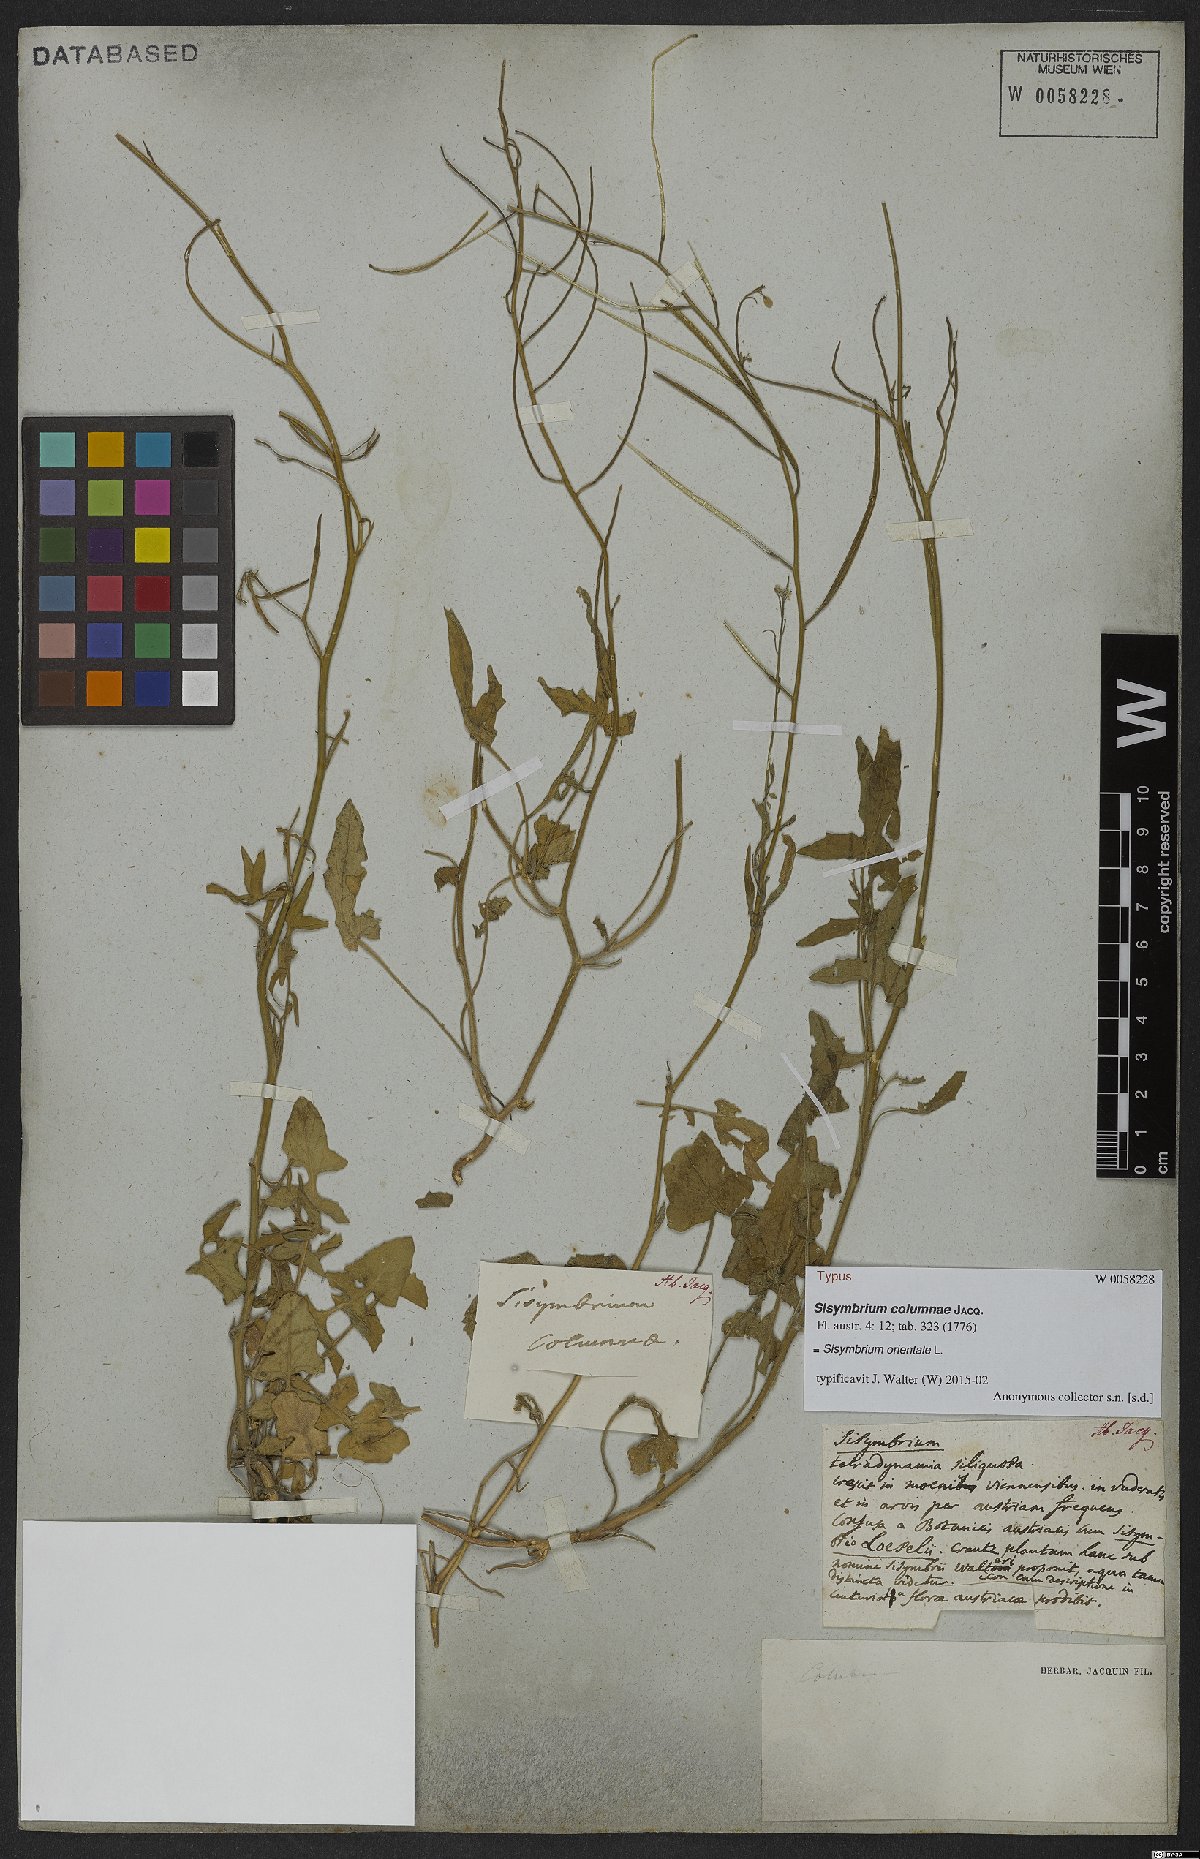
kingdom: Plantae
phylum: Tracheophyta
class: Magnoliopsida
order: Brassicales
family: Brassicaceae
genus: Sisymbrium
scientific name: Sisymbrium orientale
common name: Eastern rocket
